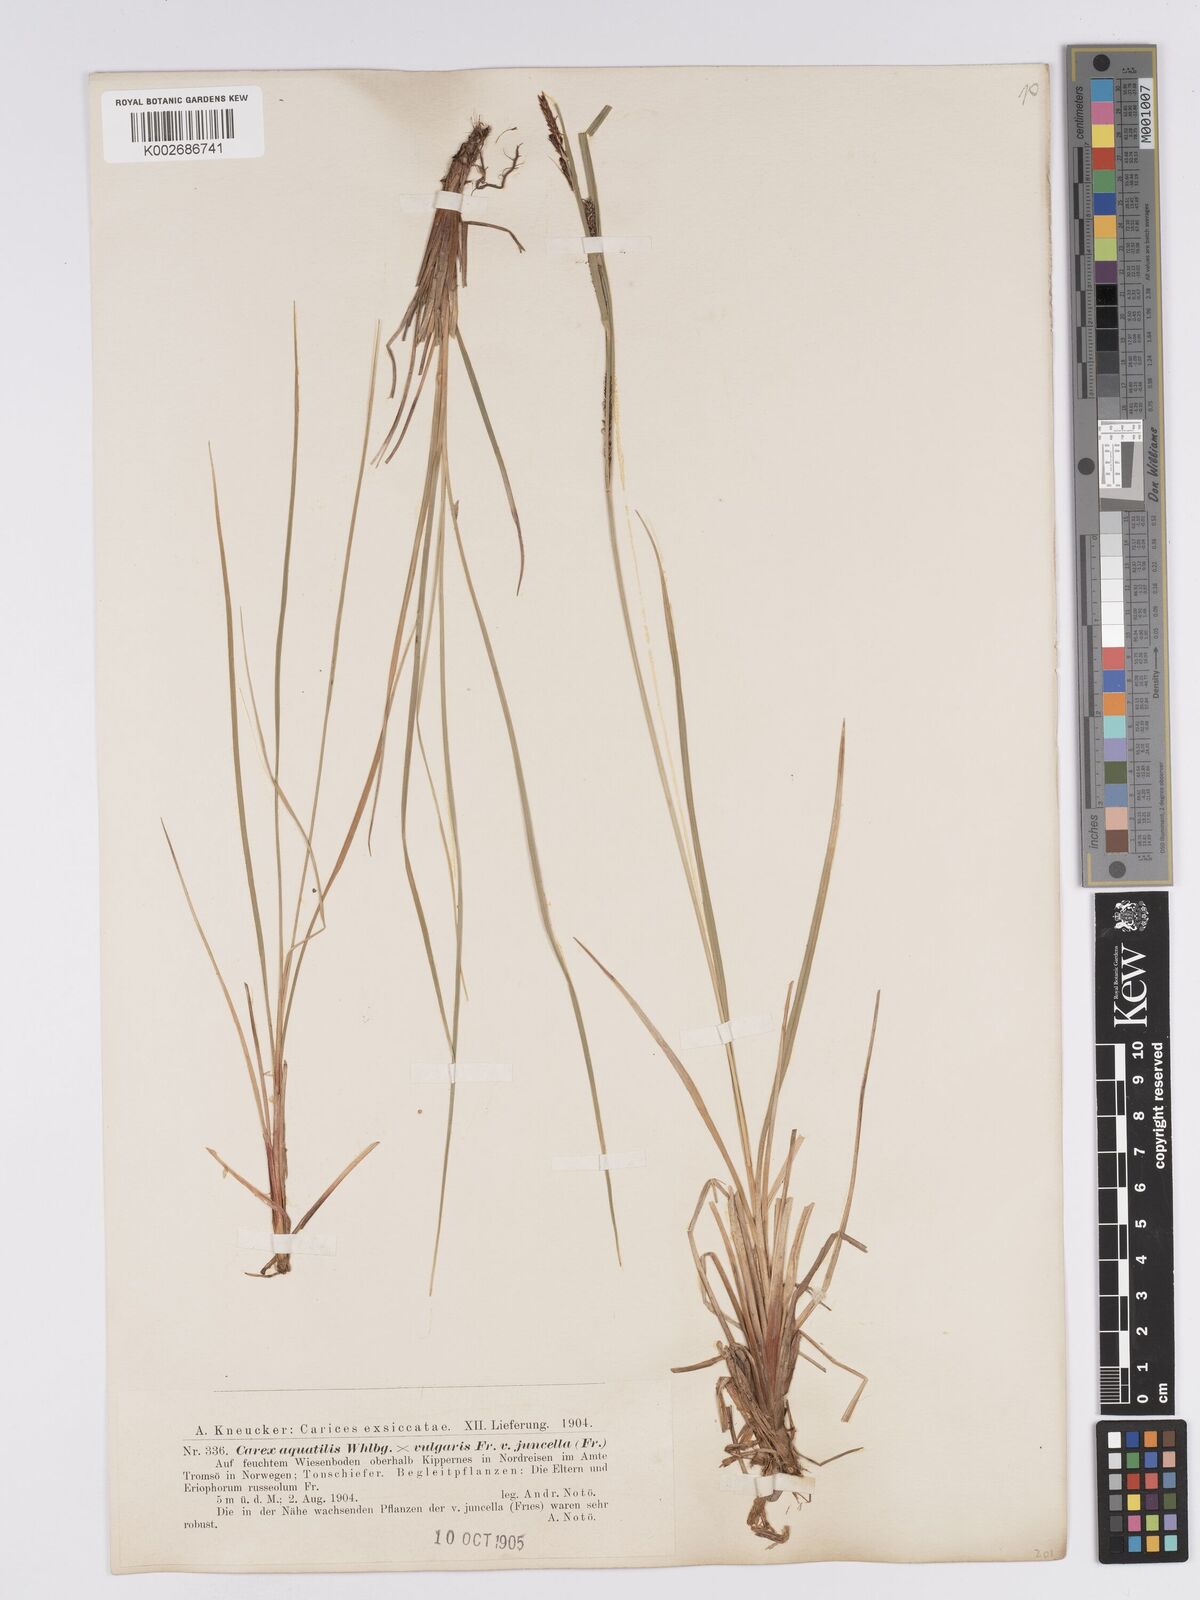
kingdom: Plantae
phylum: Tracheophyta
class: Liliopsida
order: Poales
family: Cyperaceae
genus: Carex
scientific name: Carex aquatilis
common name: Water sedge
